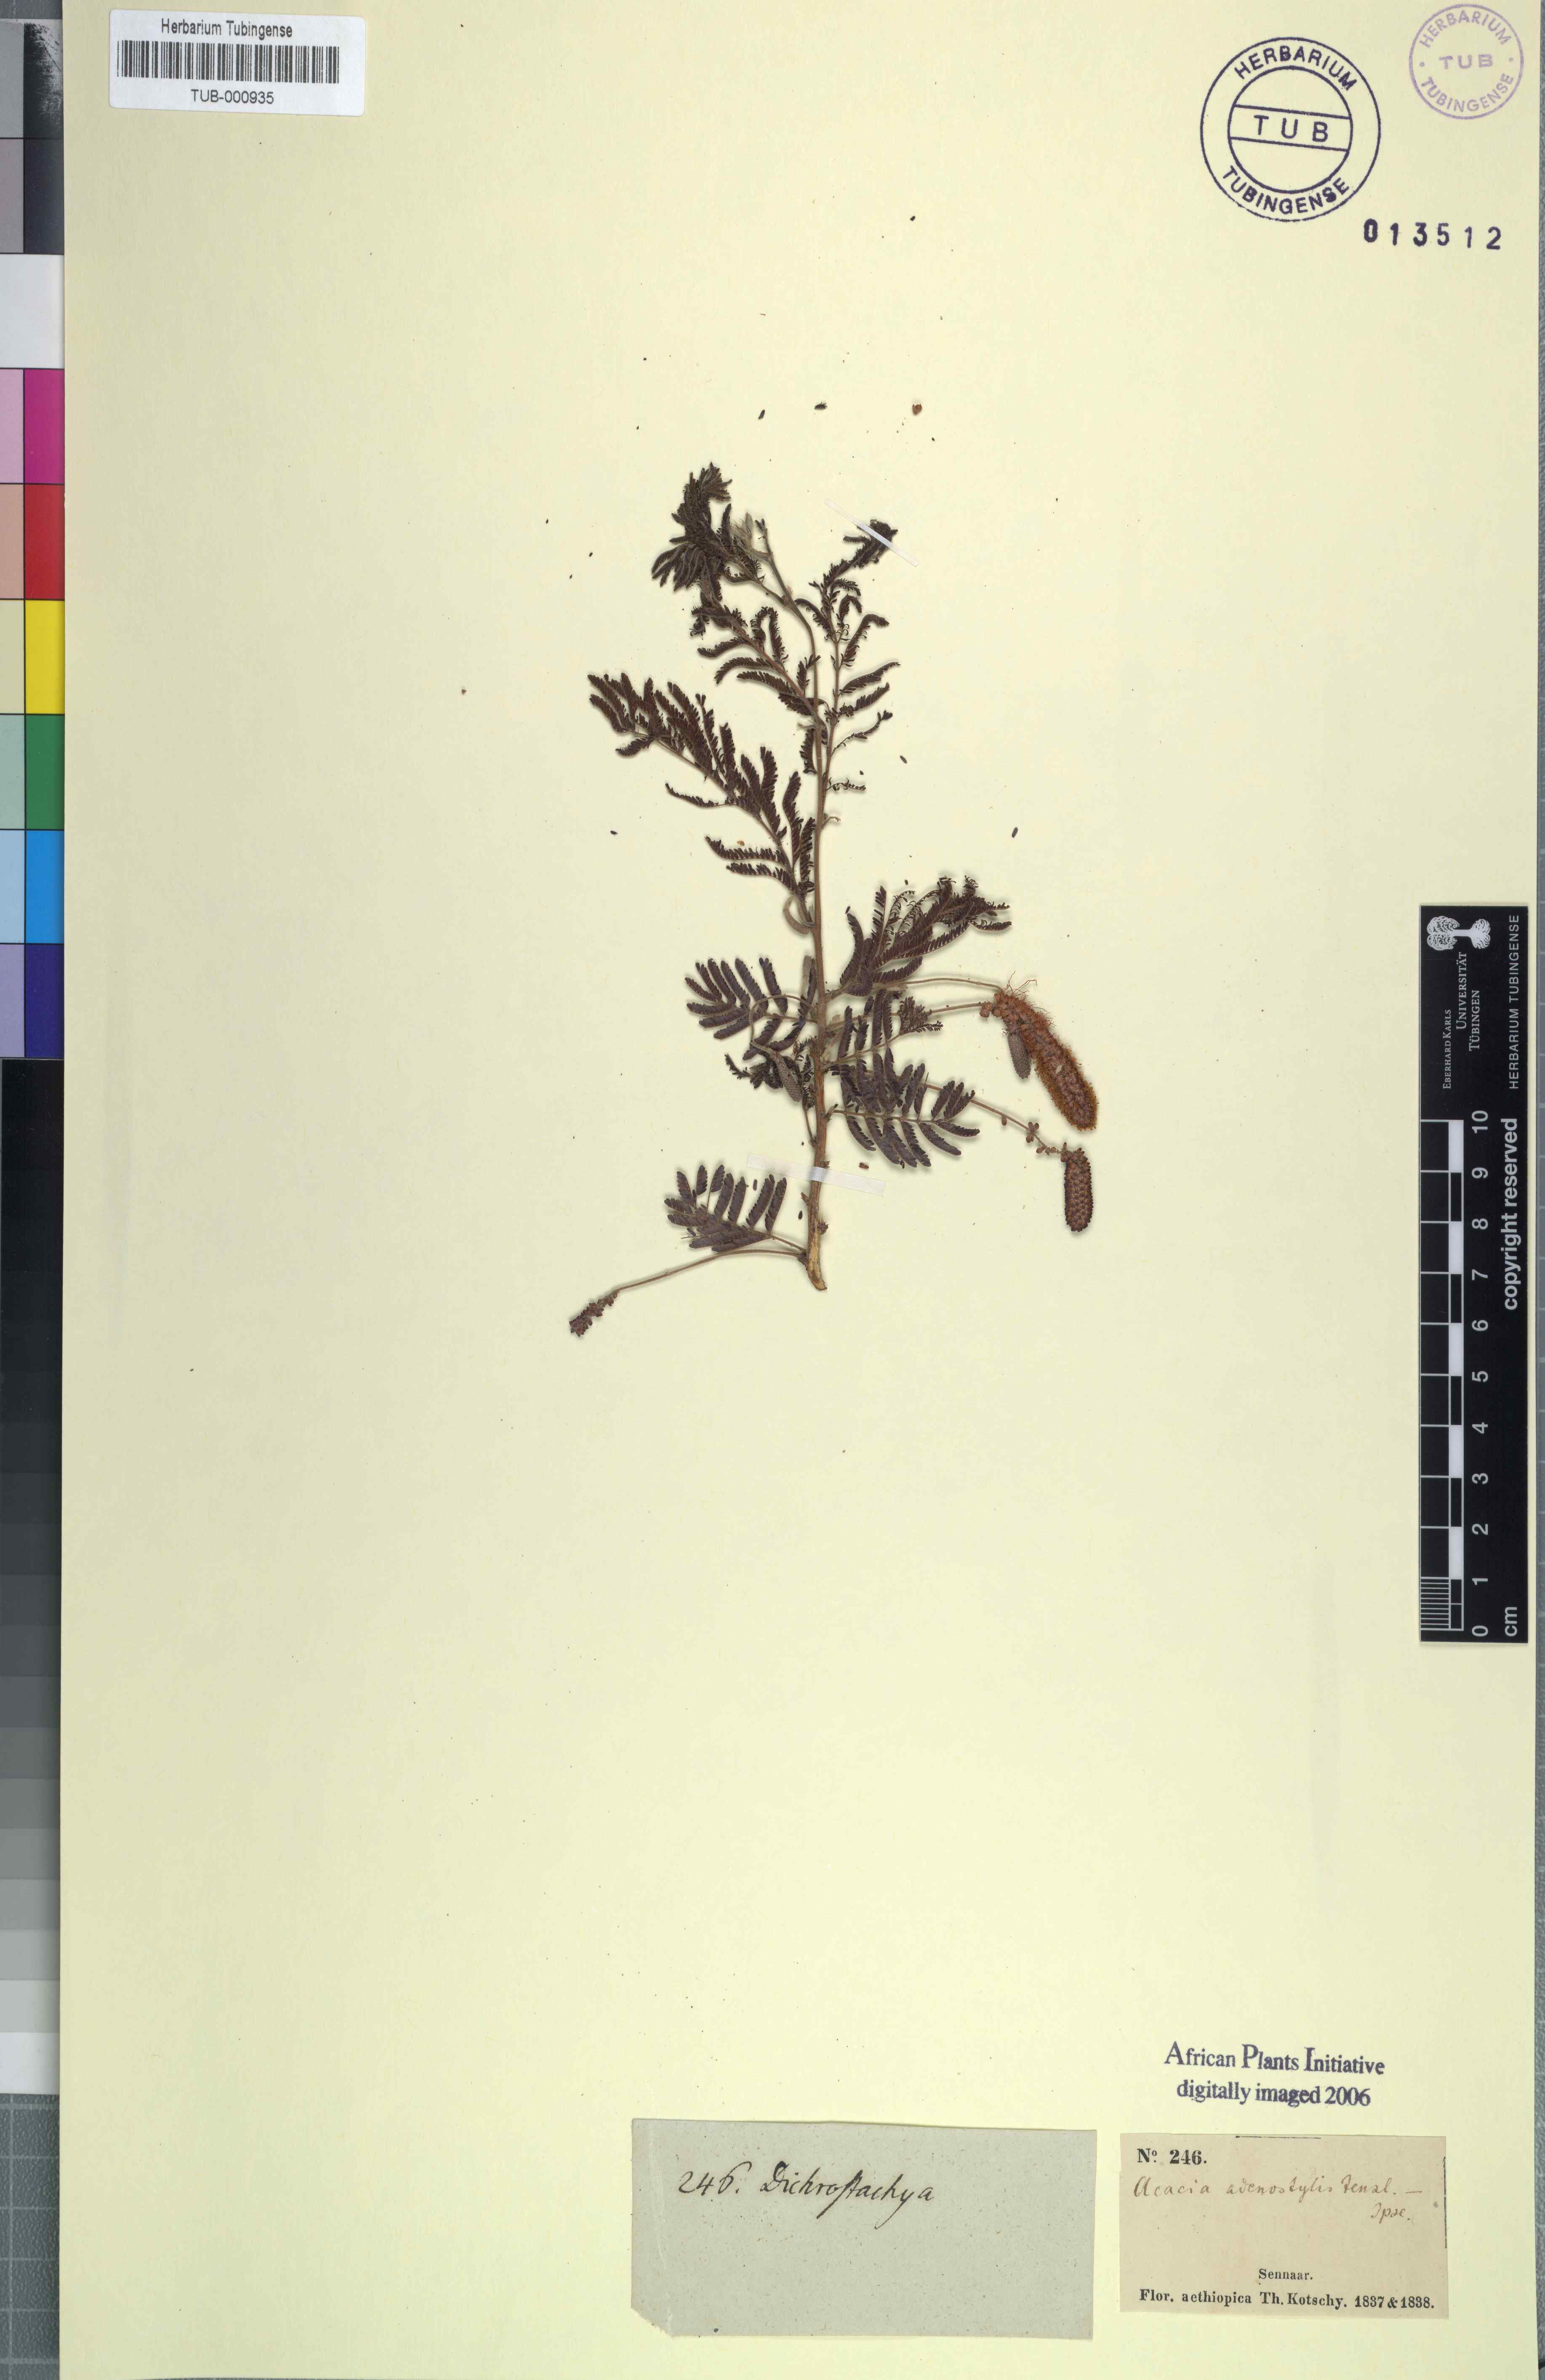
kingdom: Plantae
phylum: Tracheophyta
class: Magnoliopsida
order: Fabales
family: Fabaceae
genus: Dichrostachys
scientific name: Dichrostachys cinerea
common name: Sicklebush
